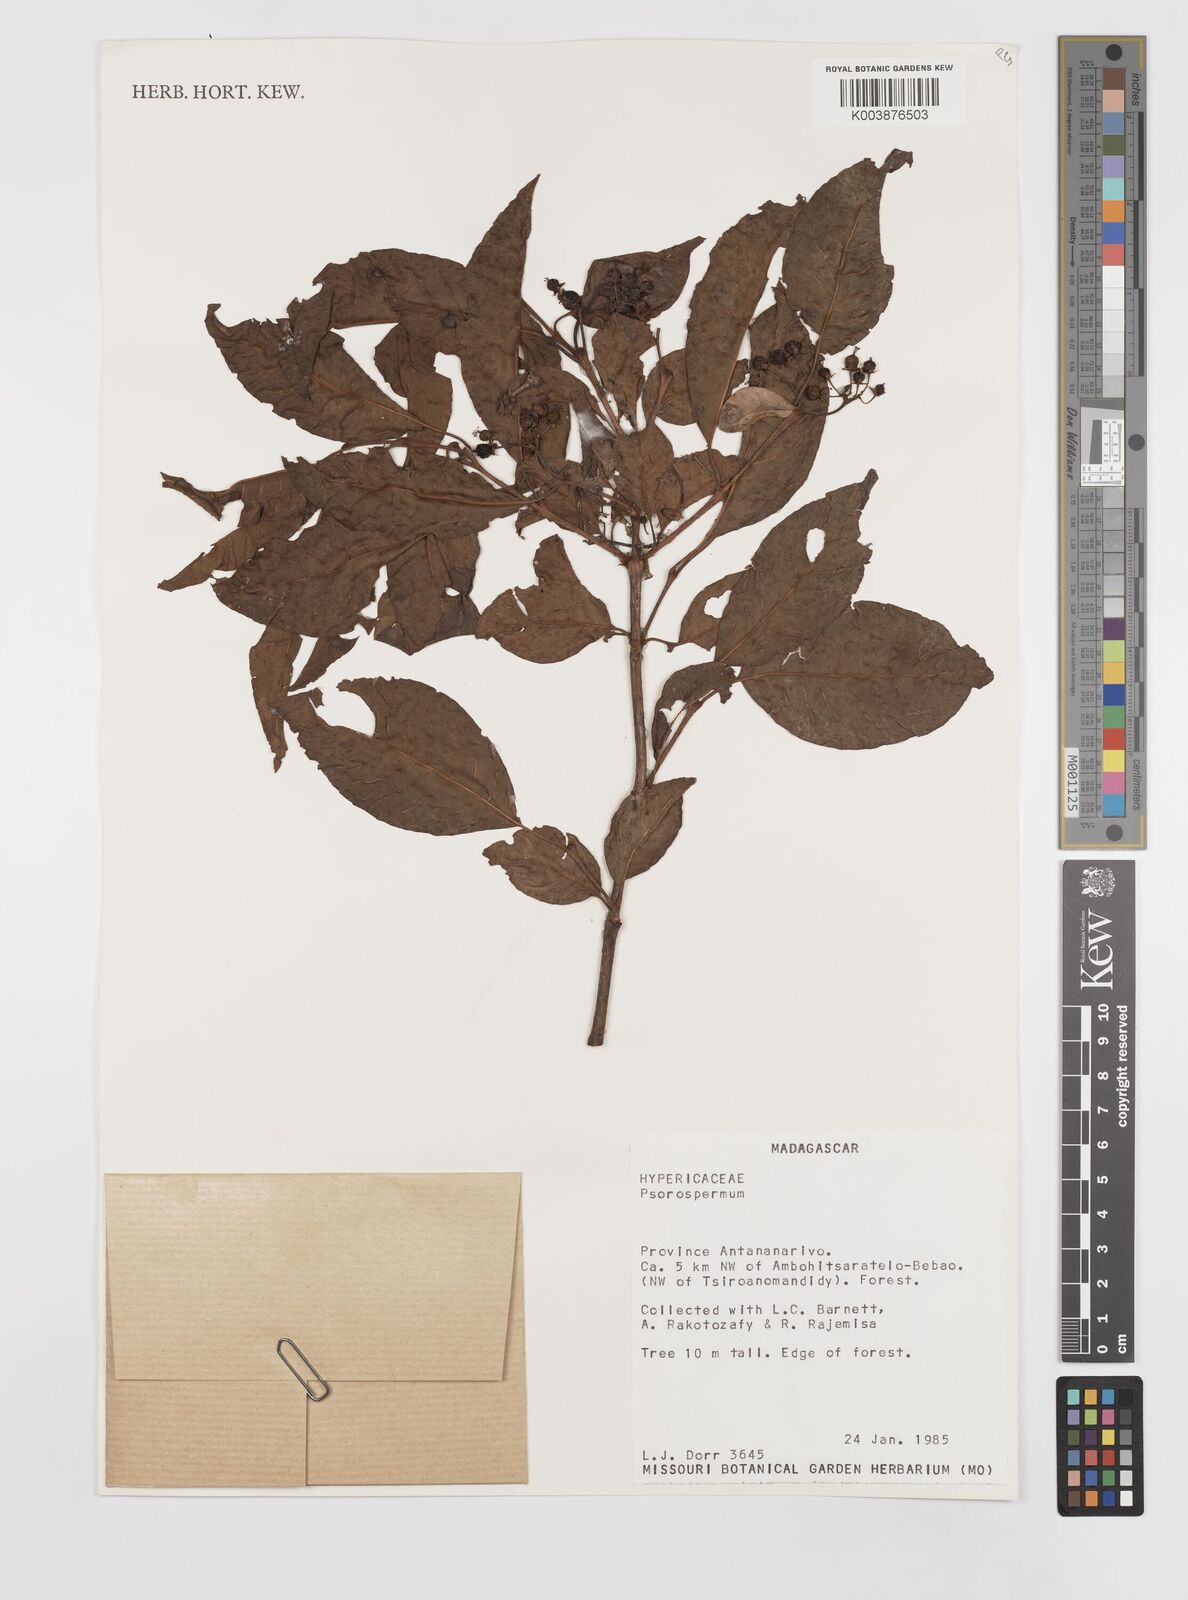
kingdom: Plantae
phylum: Tracheophyta
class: Magnoliopsida
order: Malpighiales
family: Hypericaceae
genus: Psorospermum
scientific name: Psorospermum
